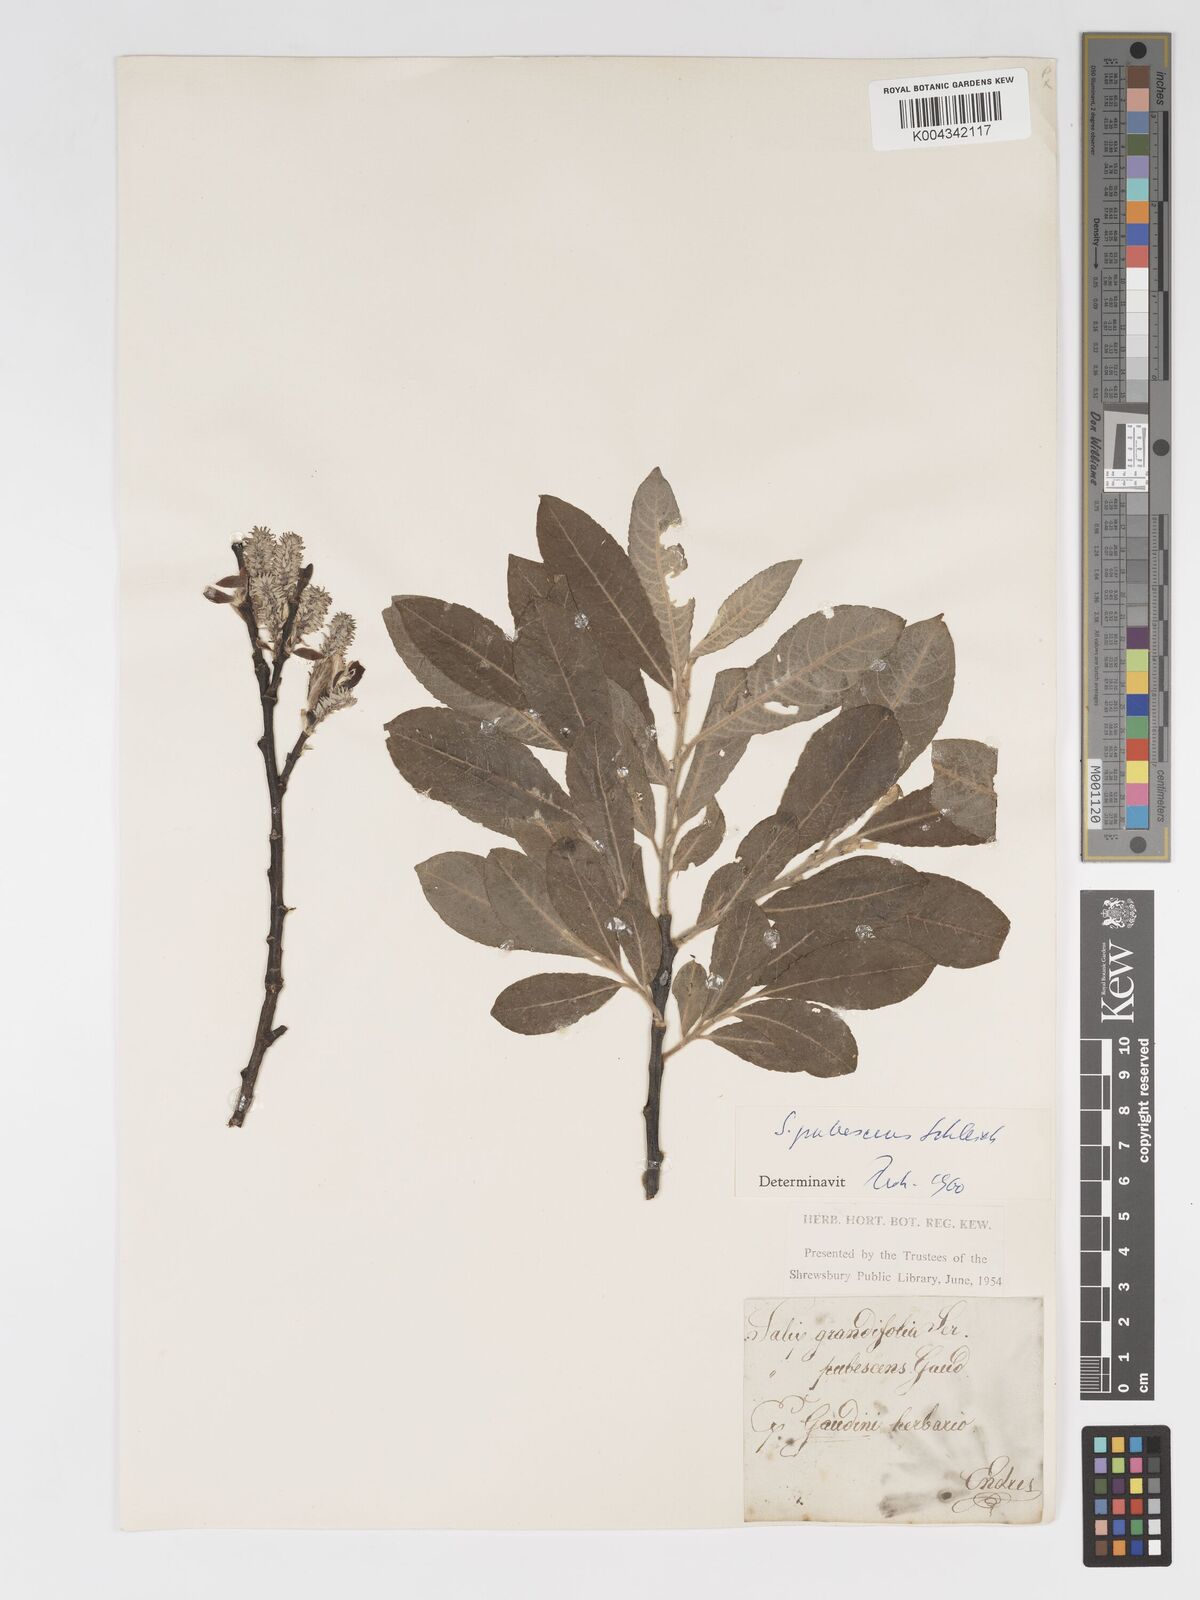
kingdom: Plantae
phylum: Tracheophyta
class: Magnoliopsida
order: Malpighiales
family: Salicaceae
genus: Salix
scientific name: Salix laggeri
